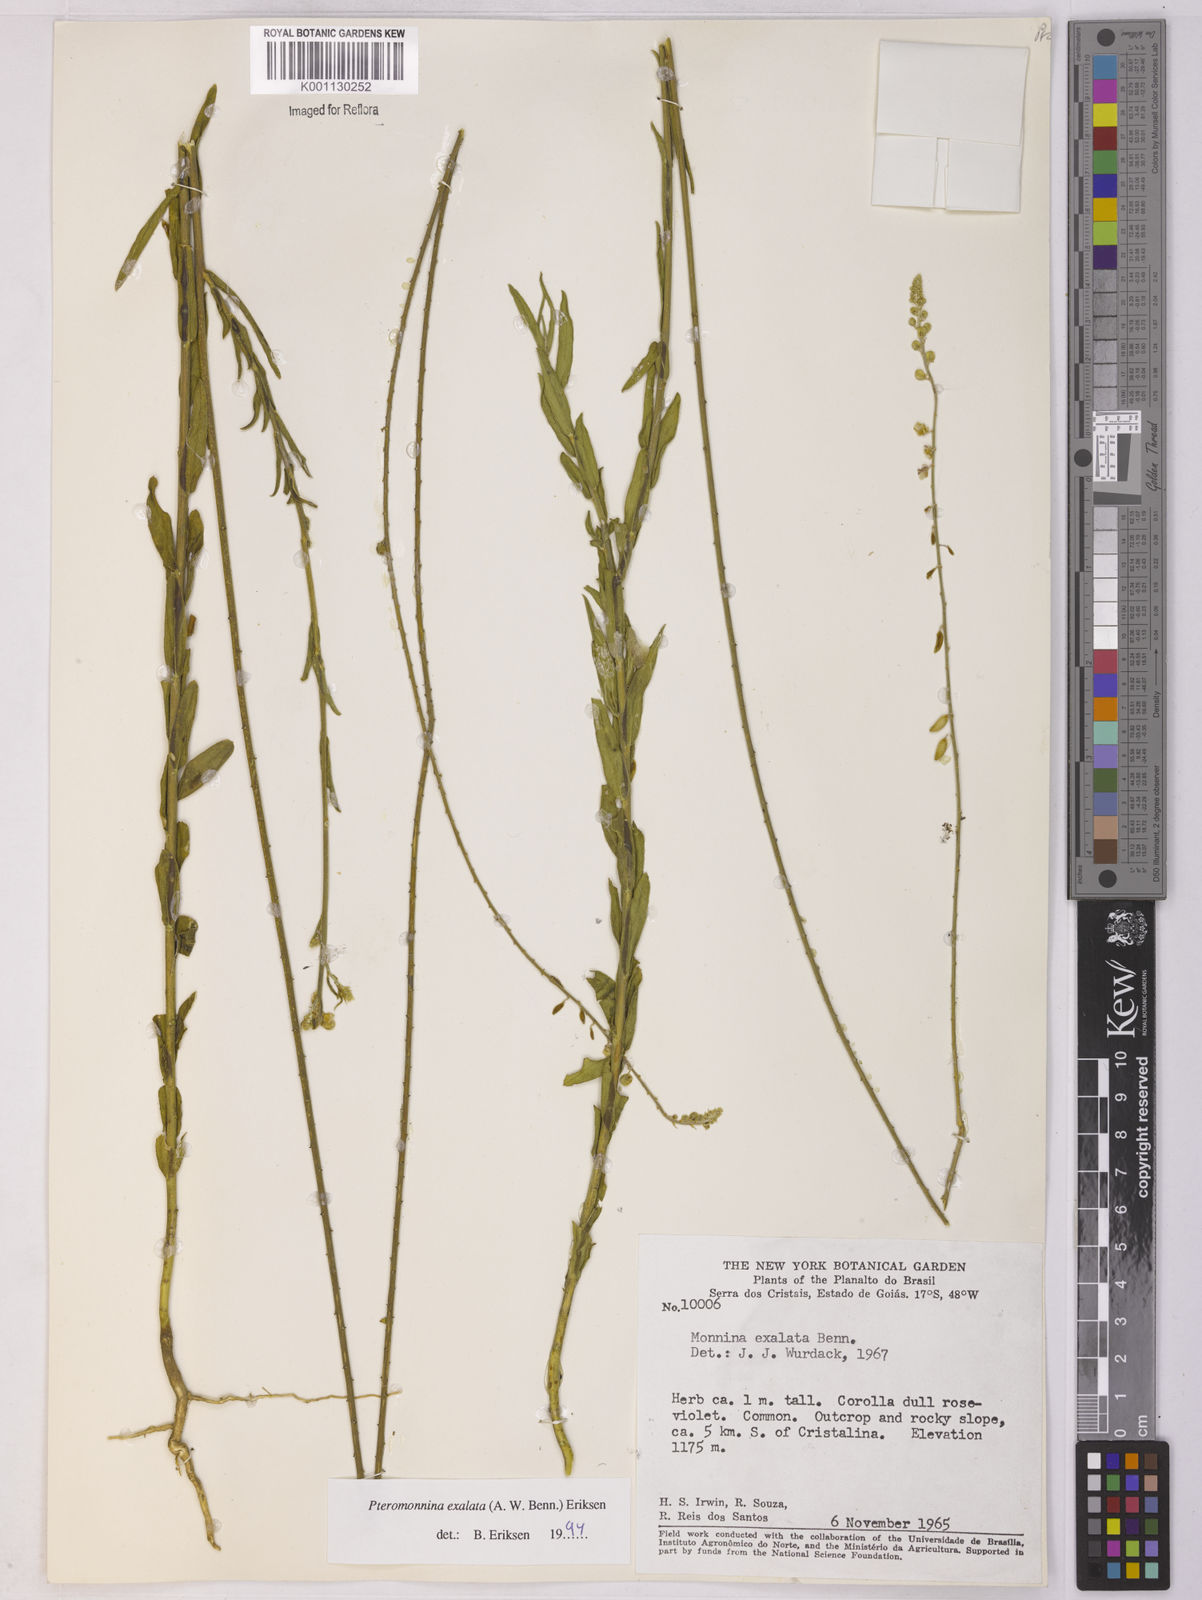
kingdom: Plantae
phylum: Tracheophyta
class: Magnoliopsida
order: Fabales
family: Polygalaceae
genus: Monnina
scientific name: Monnina exalata
